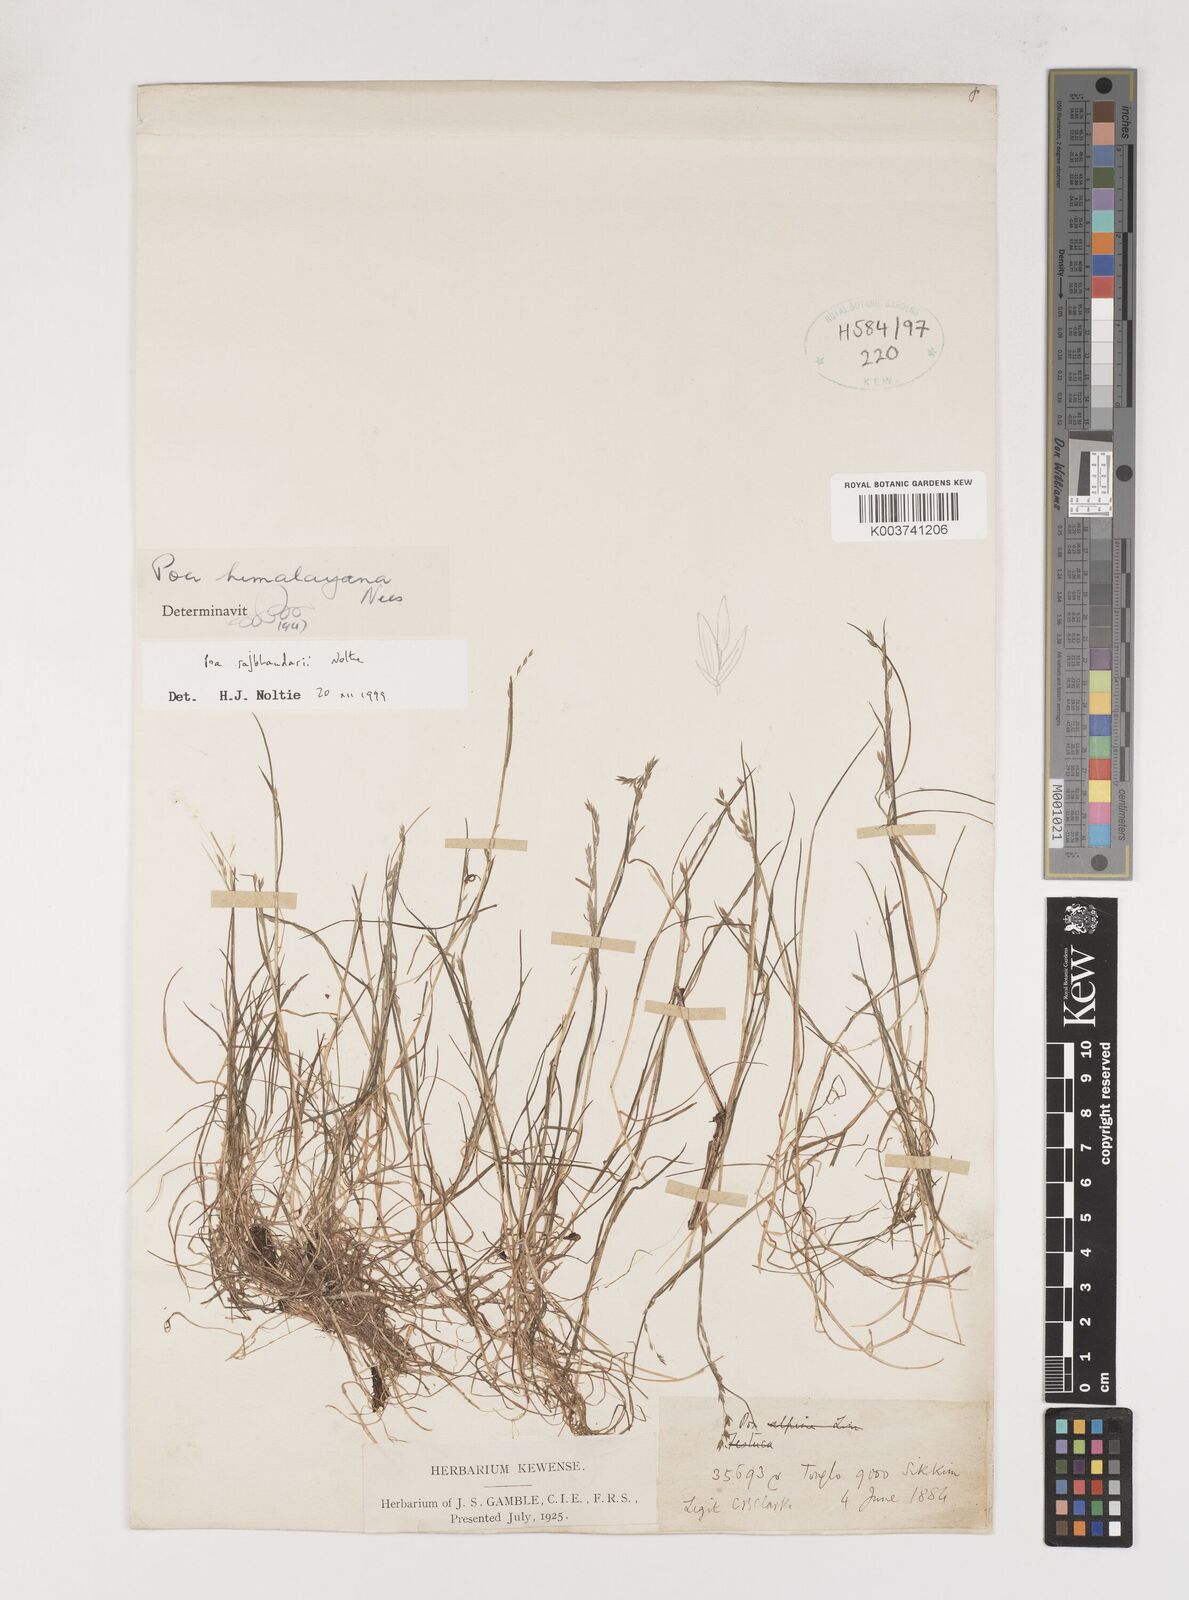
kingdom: Plantae
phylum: Tracheophyta
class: Liliopsida
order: Poales
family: Poaceae
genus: Poa
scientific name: Poa rajbhandarii
